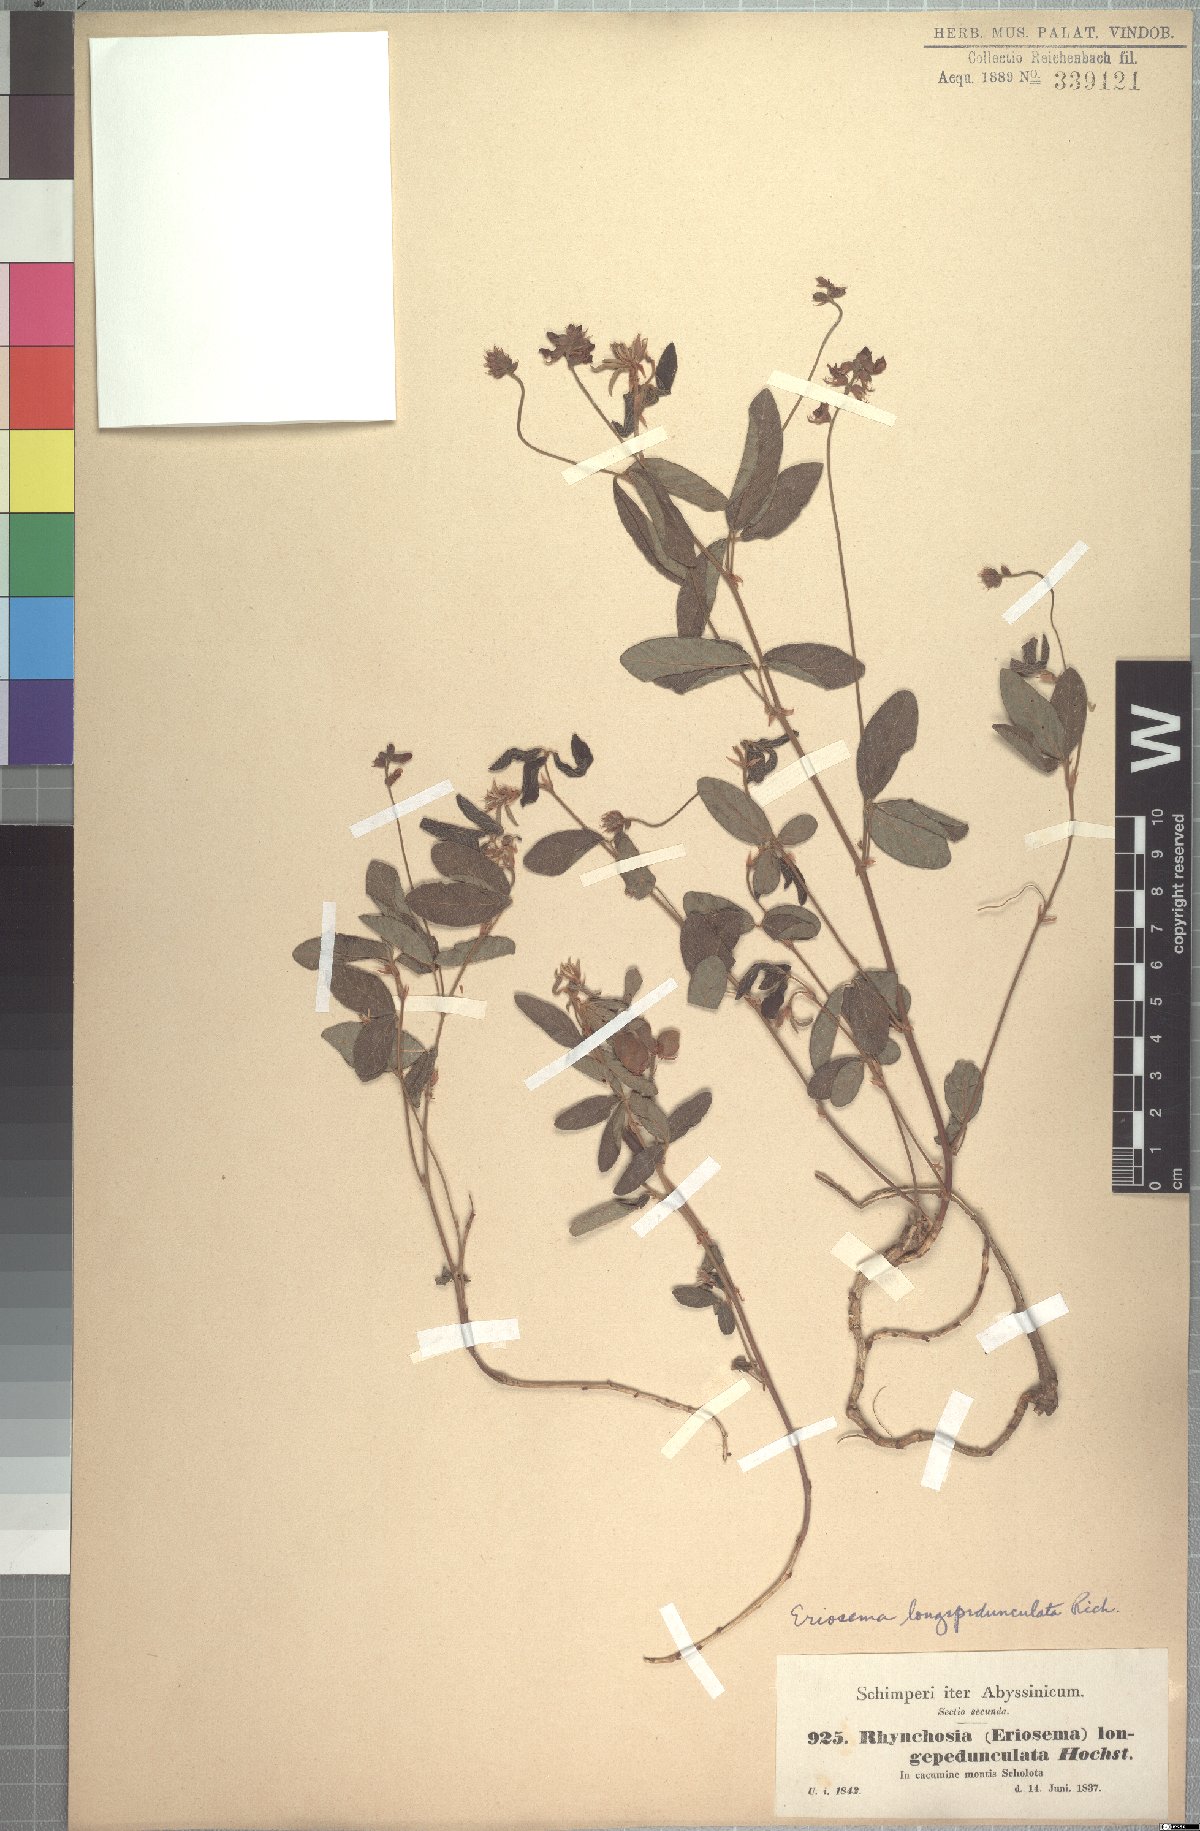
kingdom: Plantae
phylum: Tracheophyta
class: Magnoliopsida
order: Fabales
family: Fabaceae
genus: Eriosema
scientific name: Eriosema longipedunculatum
